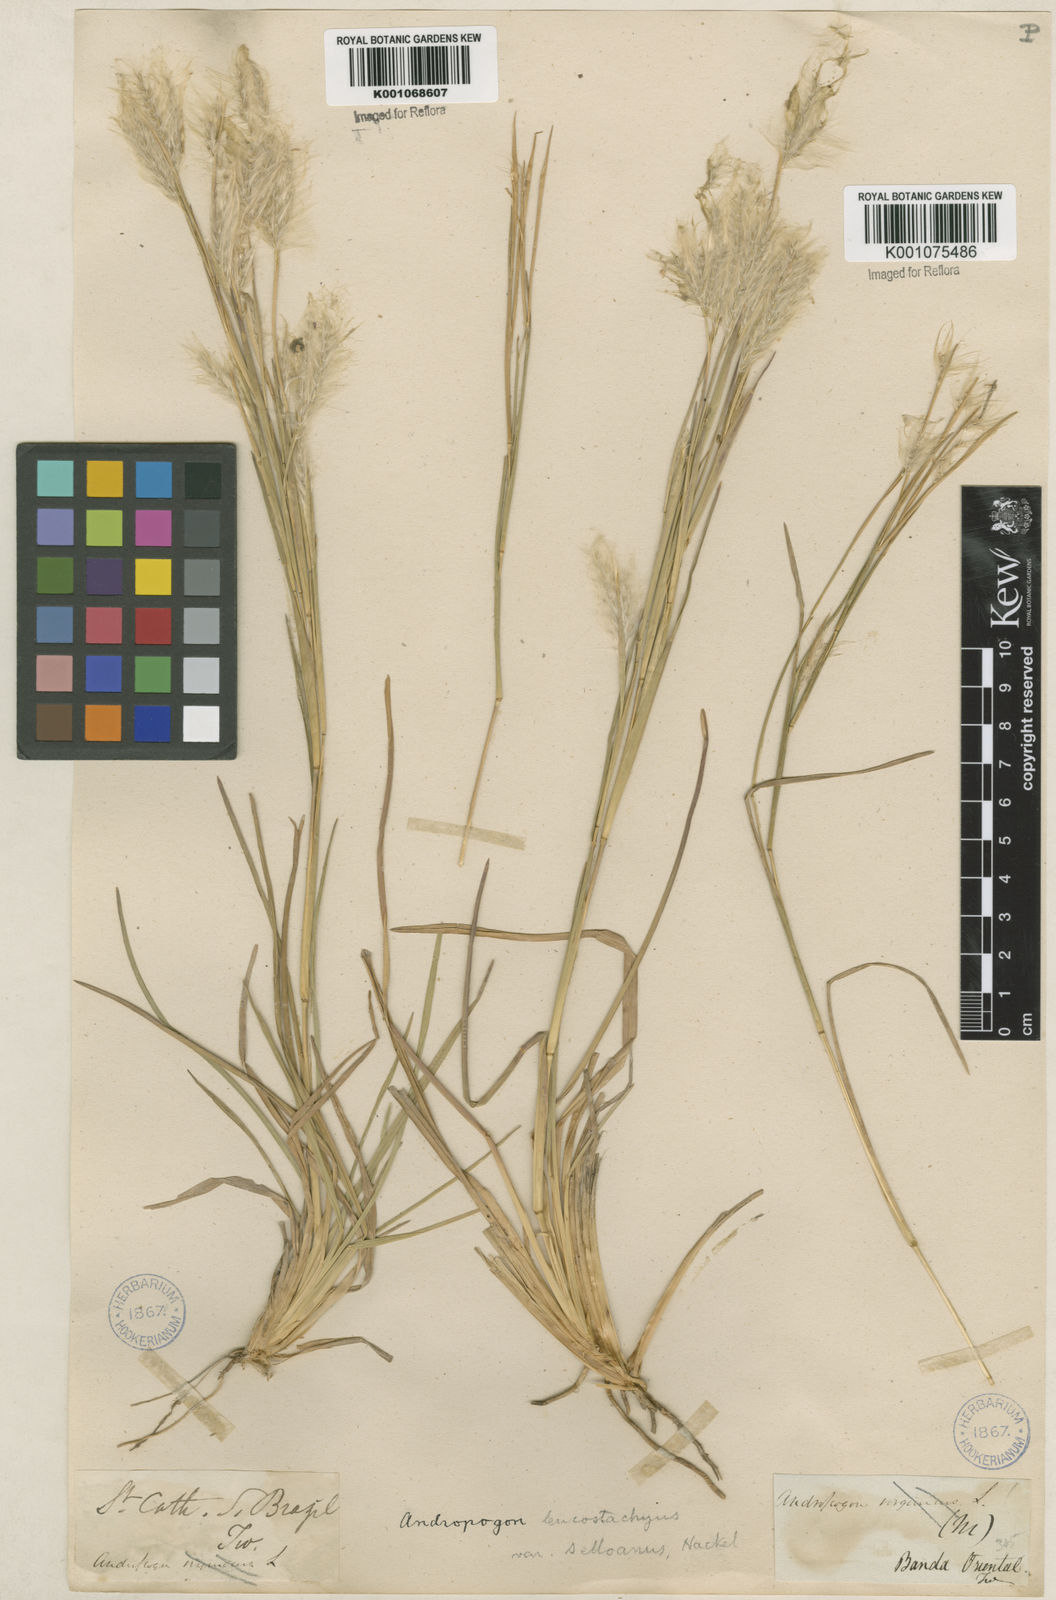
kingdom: Plantae
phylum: Tracheophyta
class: Liliopsida
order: Poales
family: Poaceae
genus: Andropogon
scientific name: Andropogon selloanus
